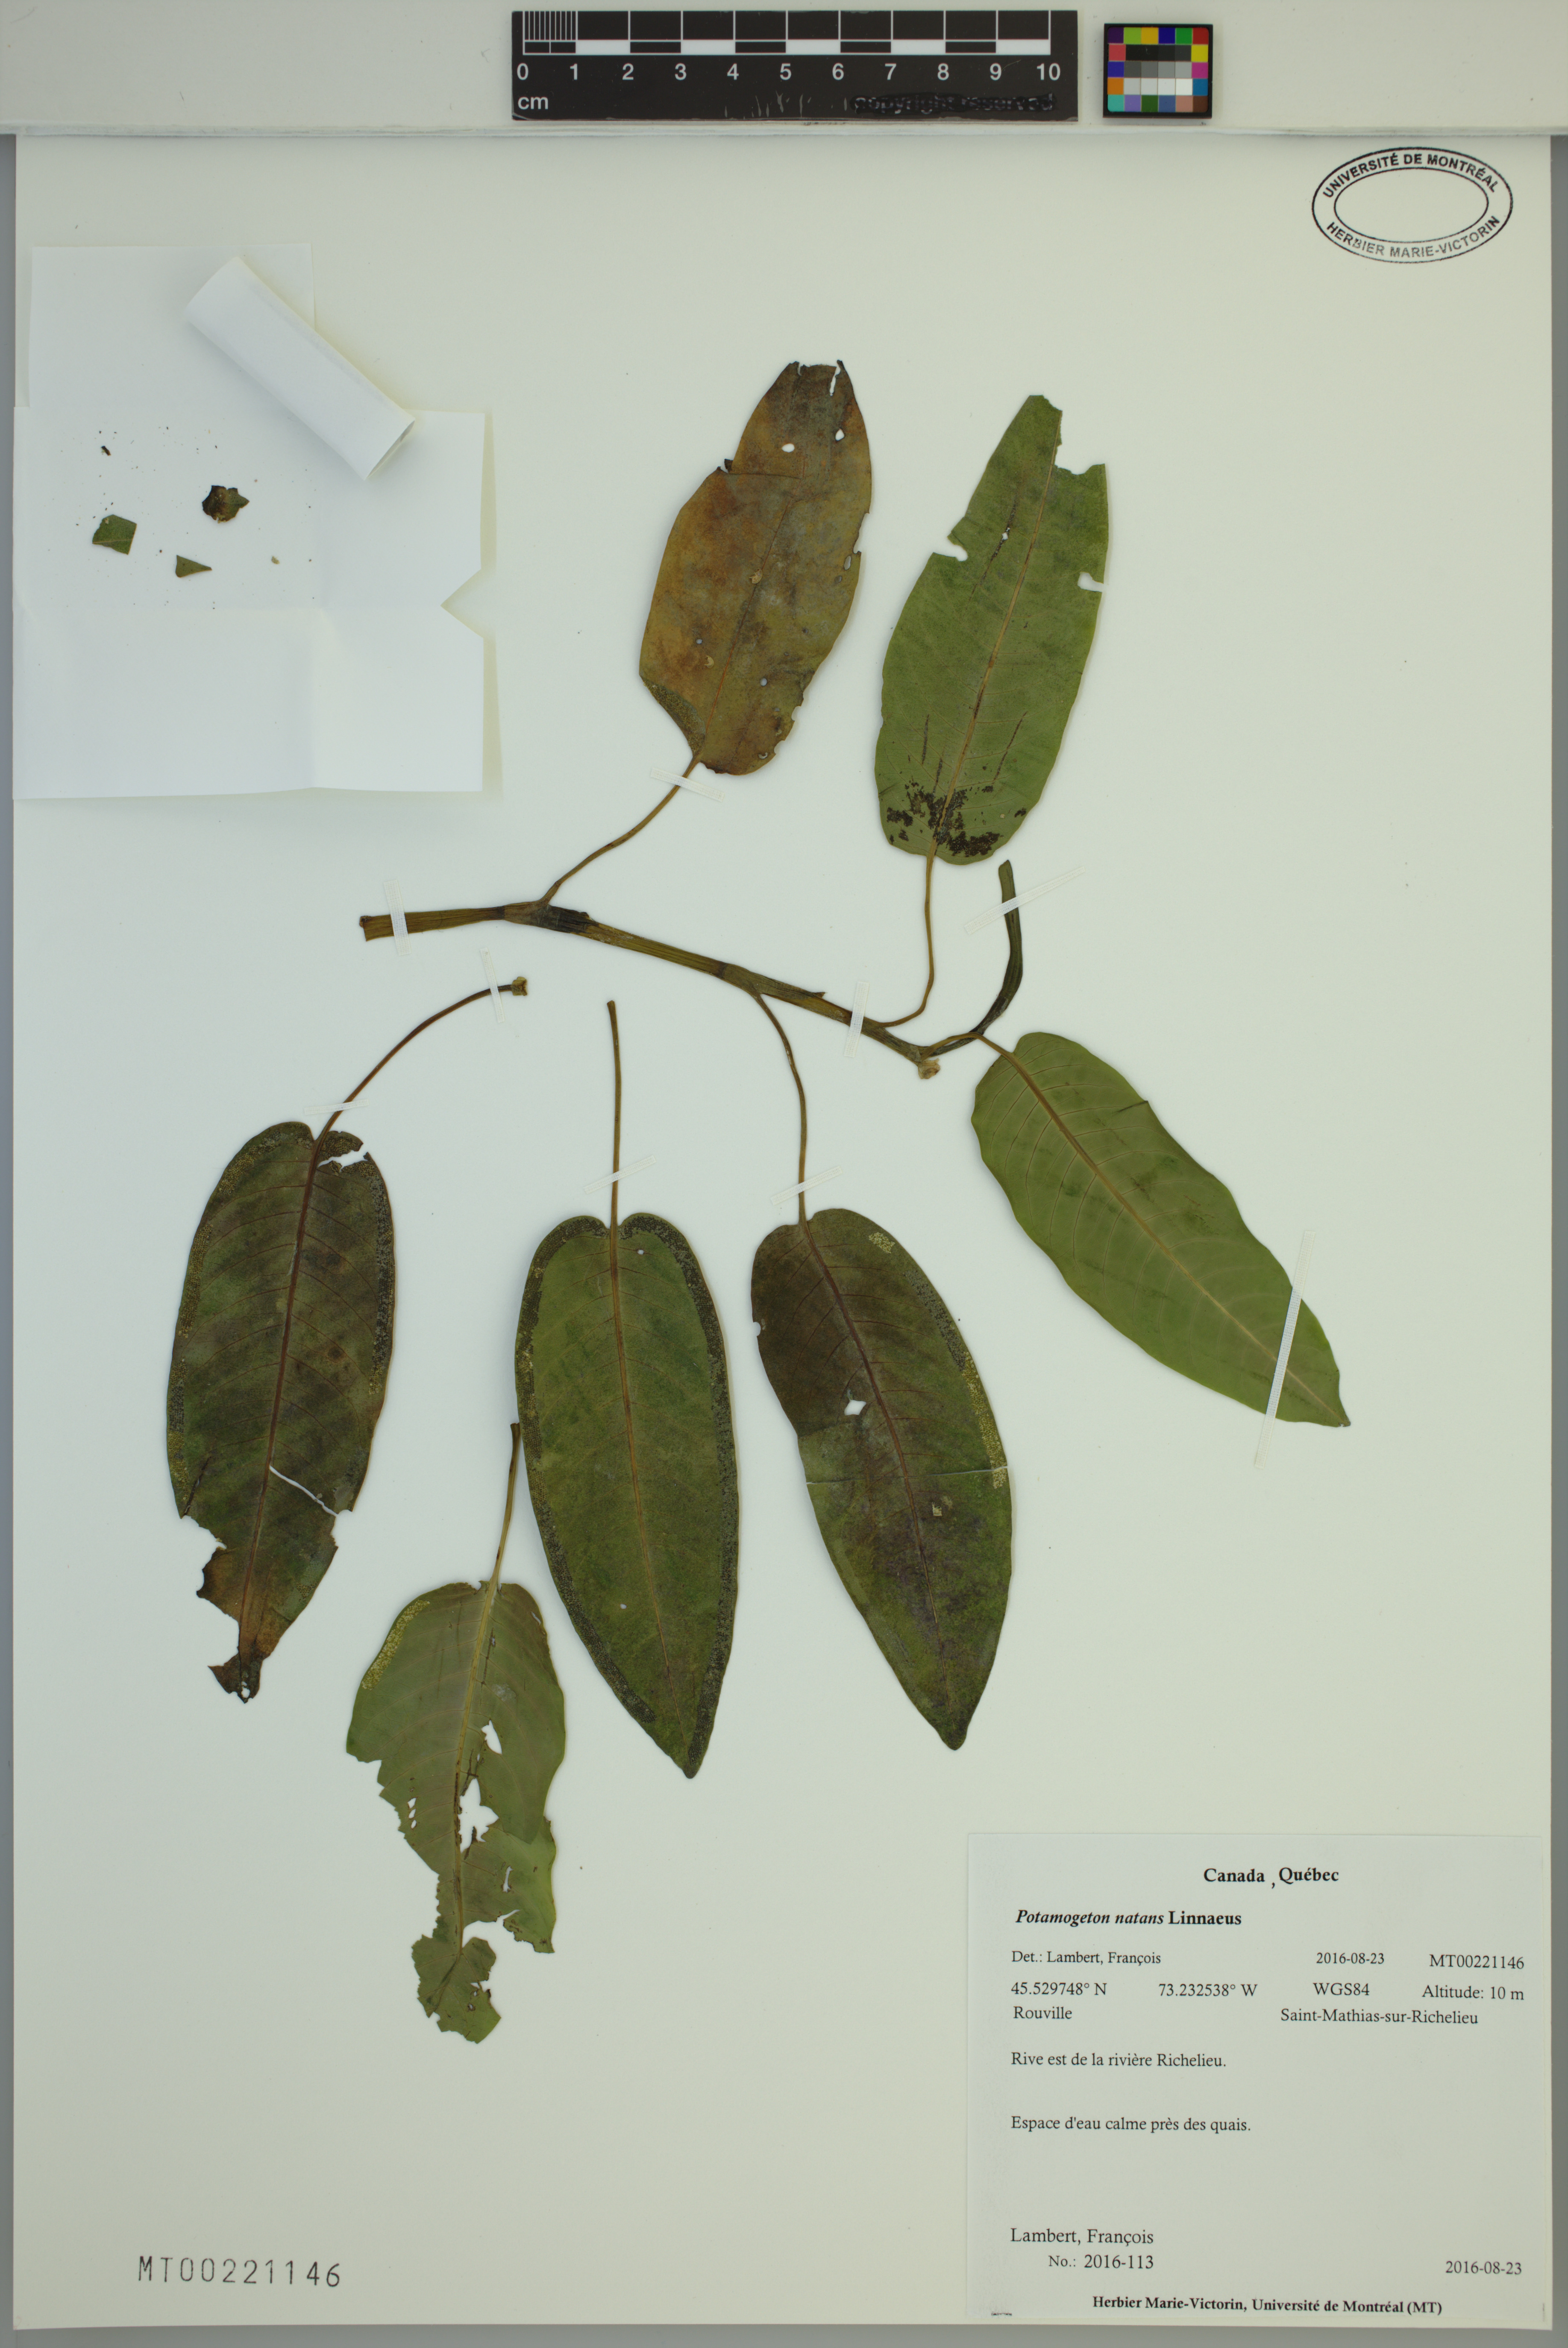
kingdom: Plantae
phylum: Tracheophyta
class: Liliopsida
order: Alismatales
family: Potamogetonaceae
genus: Potamogeton
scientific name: Potamogeton natans
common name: Broad-leaved pondweed
